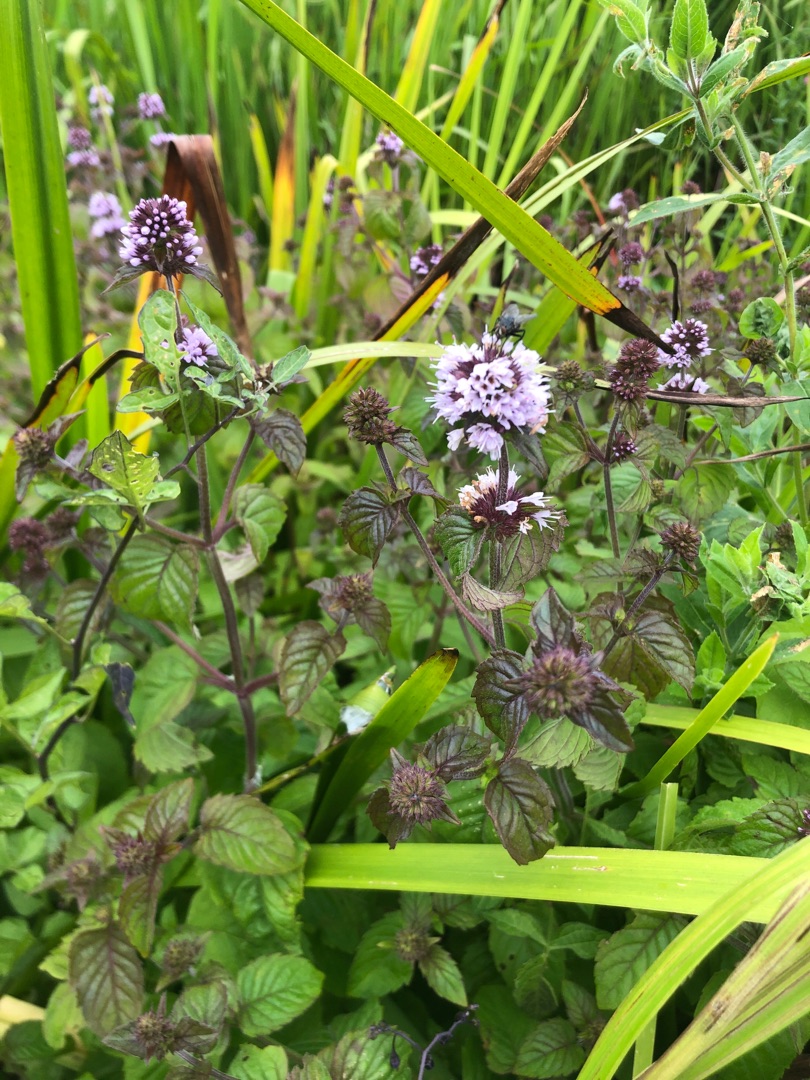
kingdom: Plantae
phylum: Tracheophyta
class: Magnoliopsida
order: Lamiales
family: Lamiaceae
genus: Mentha
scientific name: Mentha aquatica
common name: Vand-mynte
